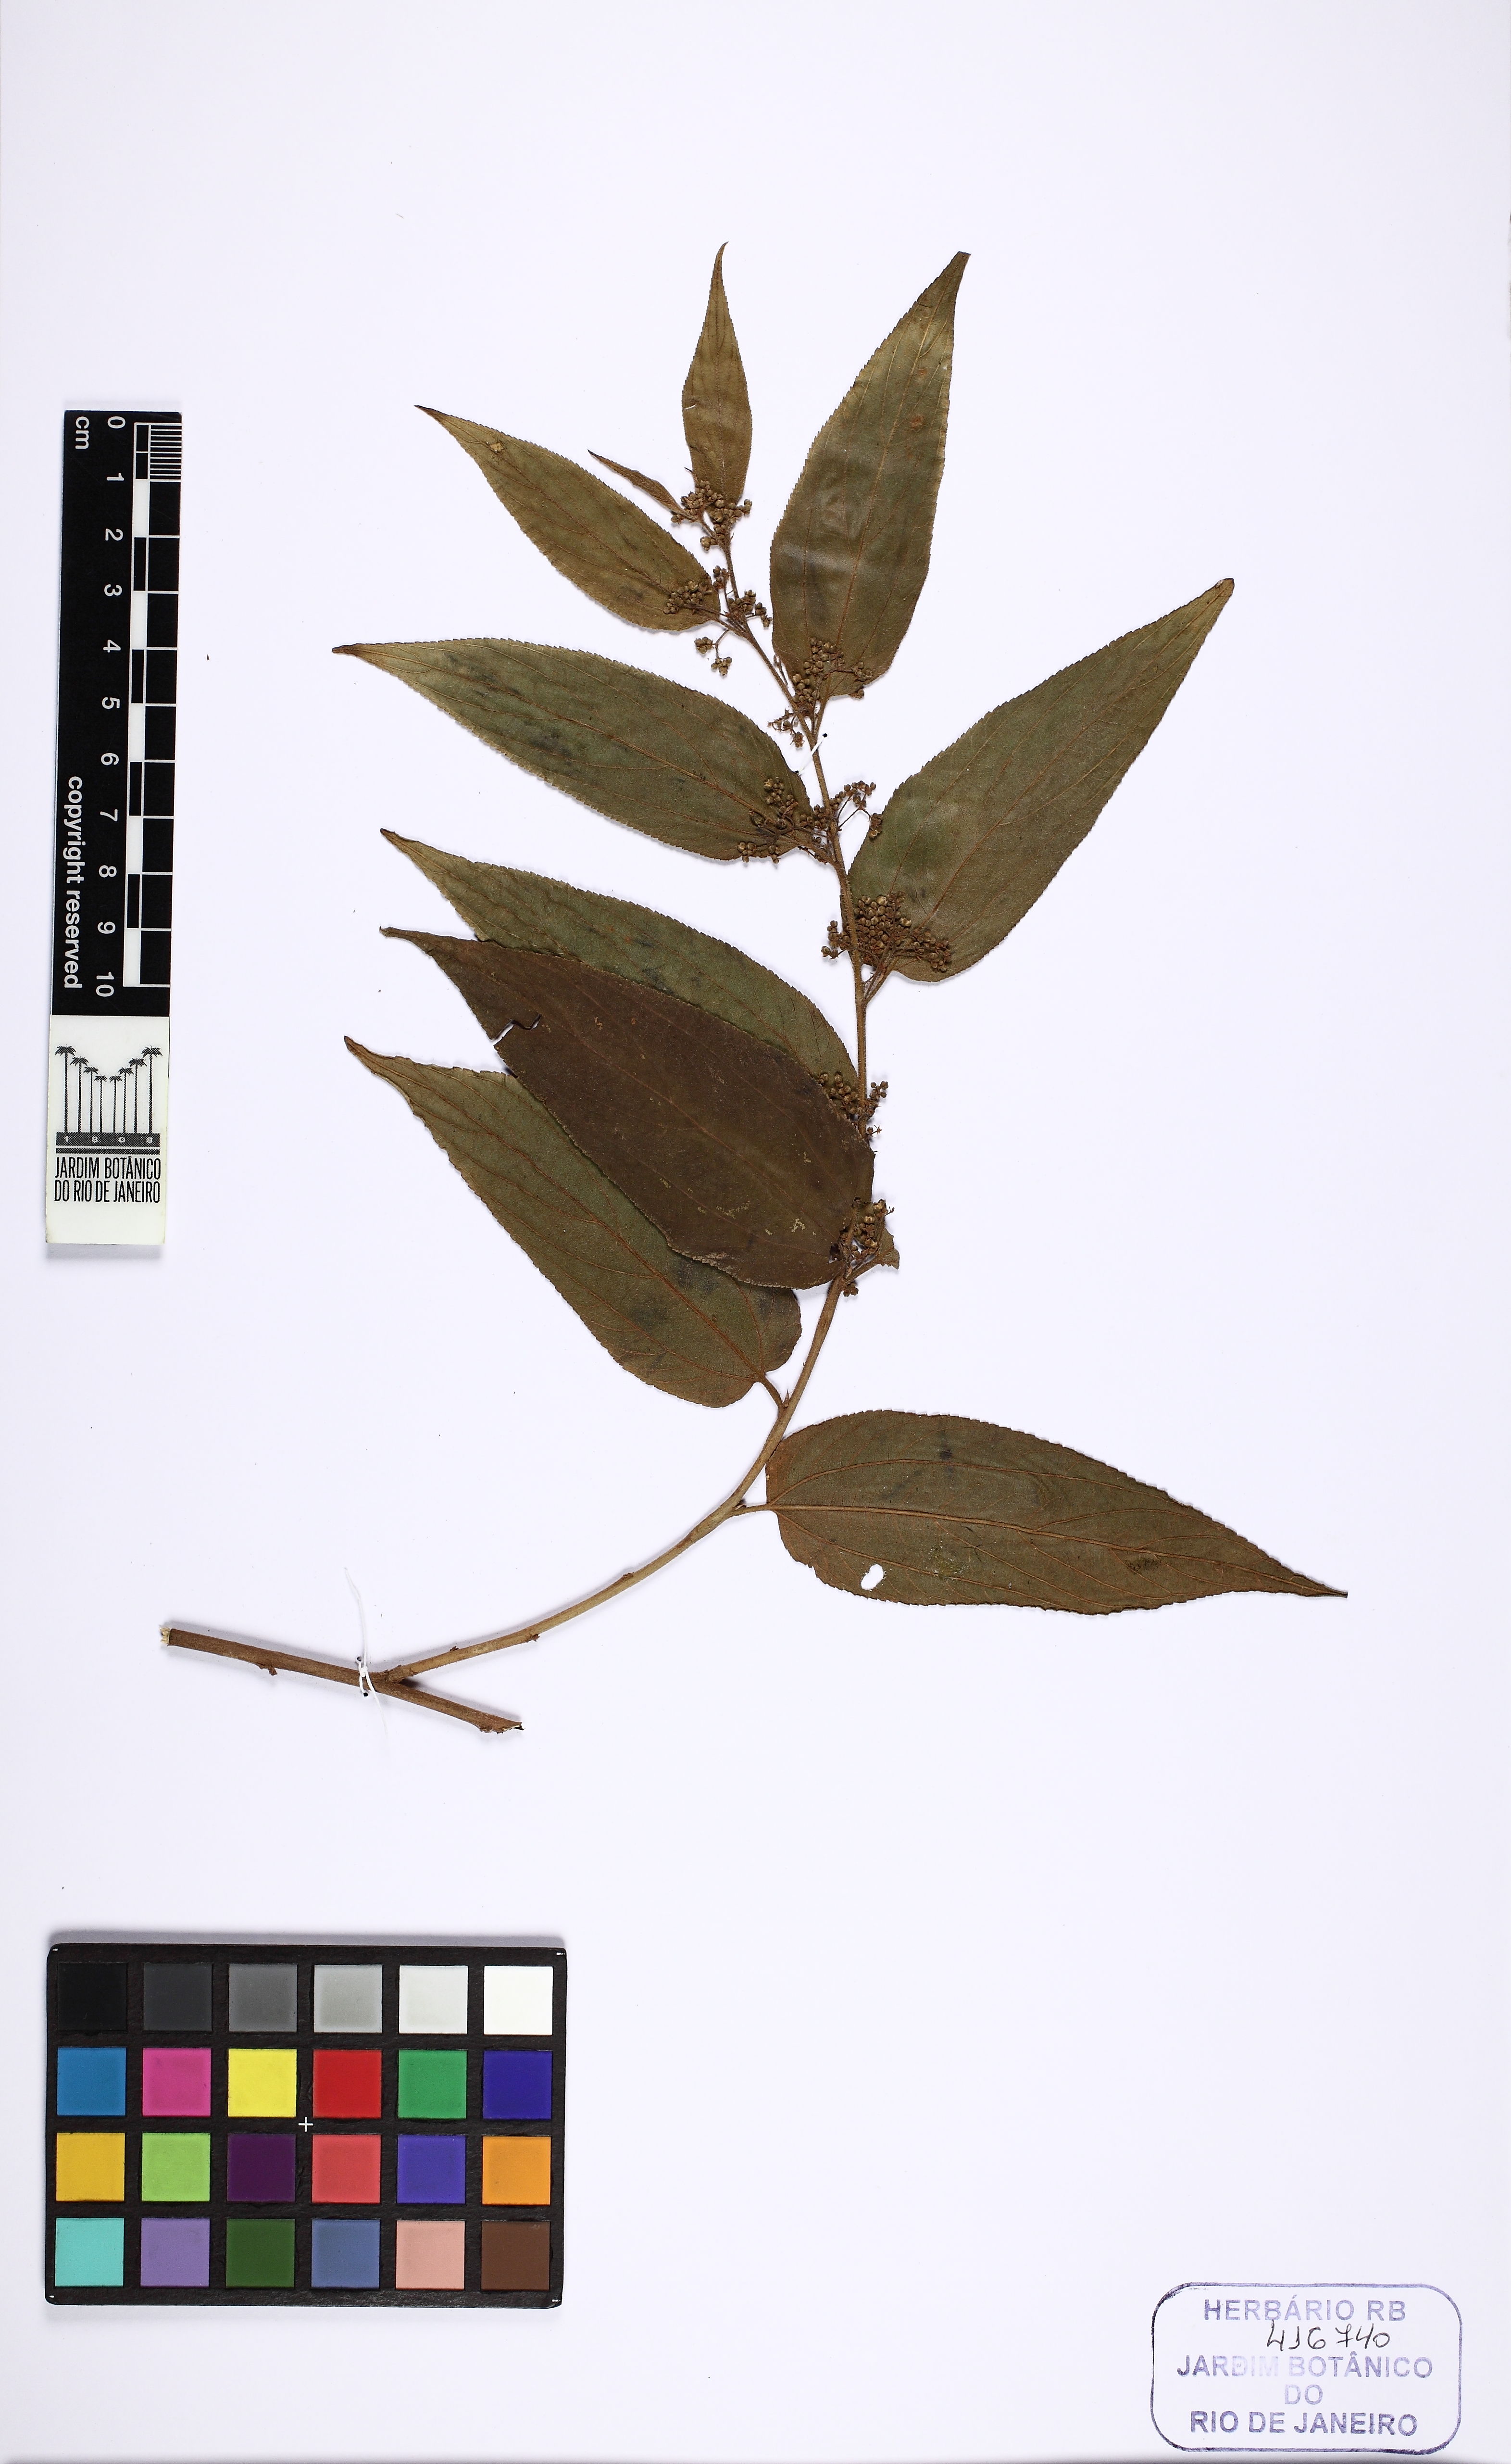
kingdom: Plantae
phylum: Tracheophyta
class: Magnoliopsida
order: Rosales
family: Cannabaceae
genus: Trema
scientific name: Trema micranthum
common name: Jamaican nettletree
